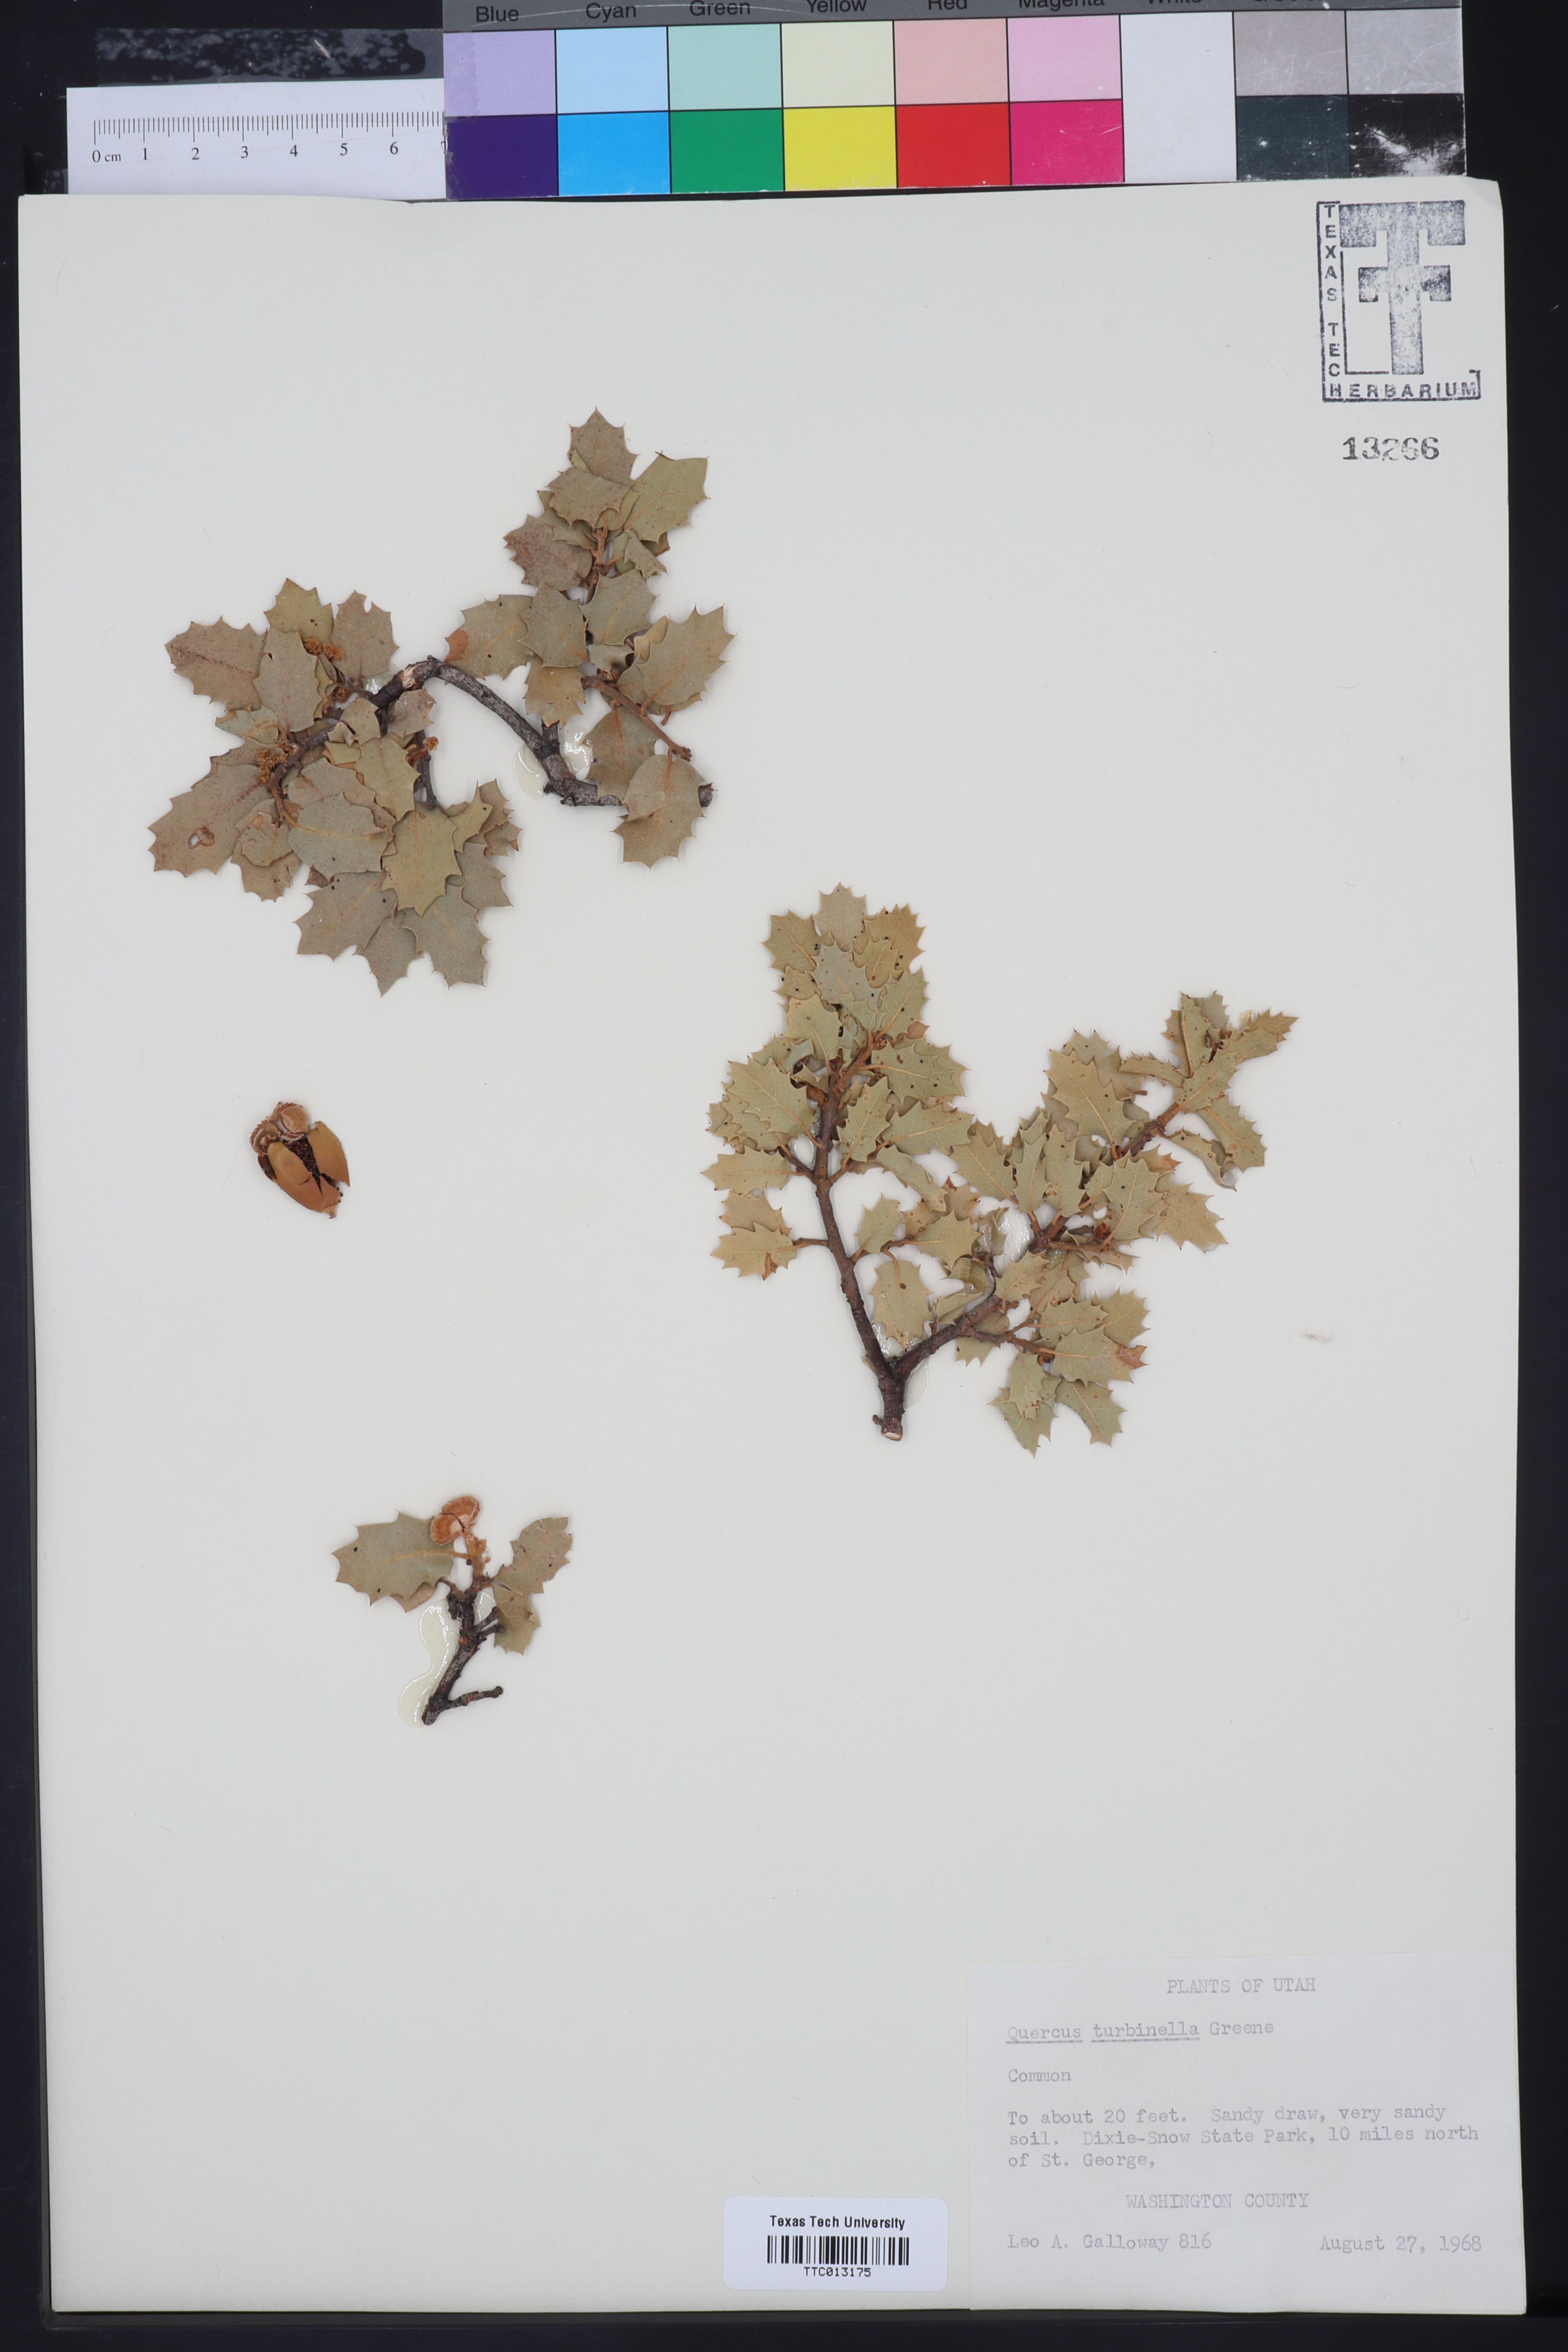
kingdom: Plantae
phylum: Tracheophyta
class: Magnoliopsida
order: Fagales
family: Fagaceae
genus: Quercus
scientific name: Quercus turbinella
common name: Sonoran scrub oak
